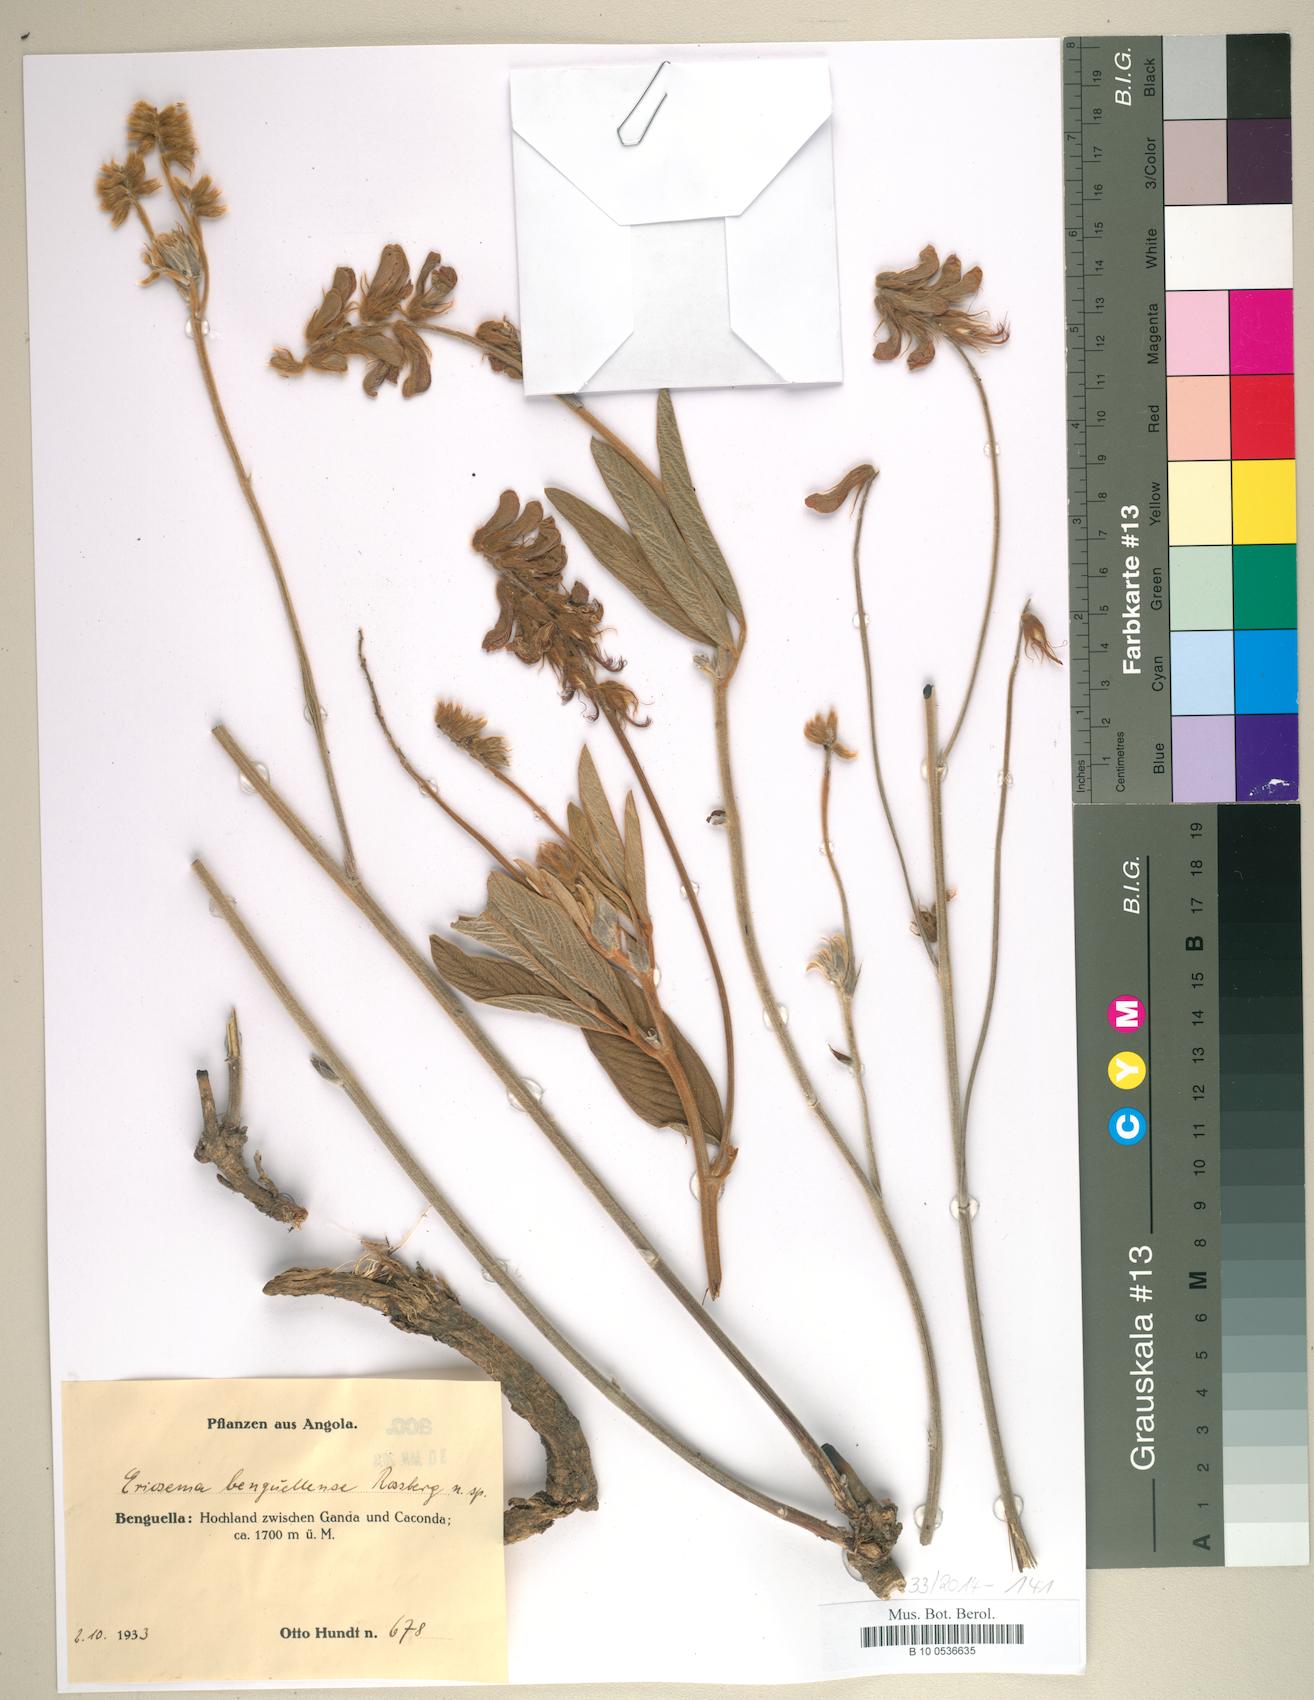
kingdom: Plantae
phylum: Tracheophyta
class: Magnoliopsida
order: Fabales
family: Fabaceae
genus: Eriosema
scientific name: Eriosema benguellense
